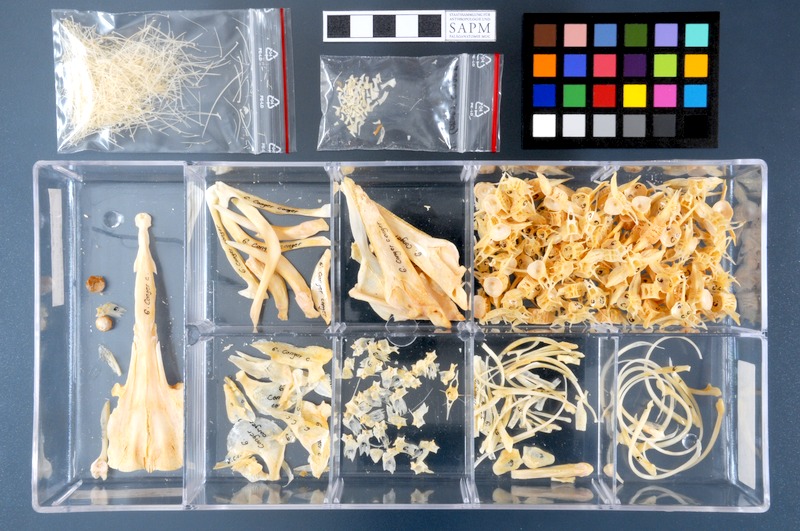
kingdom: Animalia
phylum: Chordata
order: Anguilliformes
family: Congridae
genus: Conger
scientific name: Conger conger
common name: Conger eel
